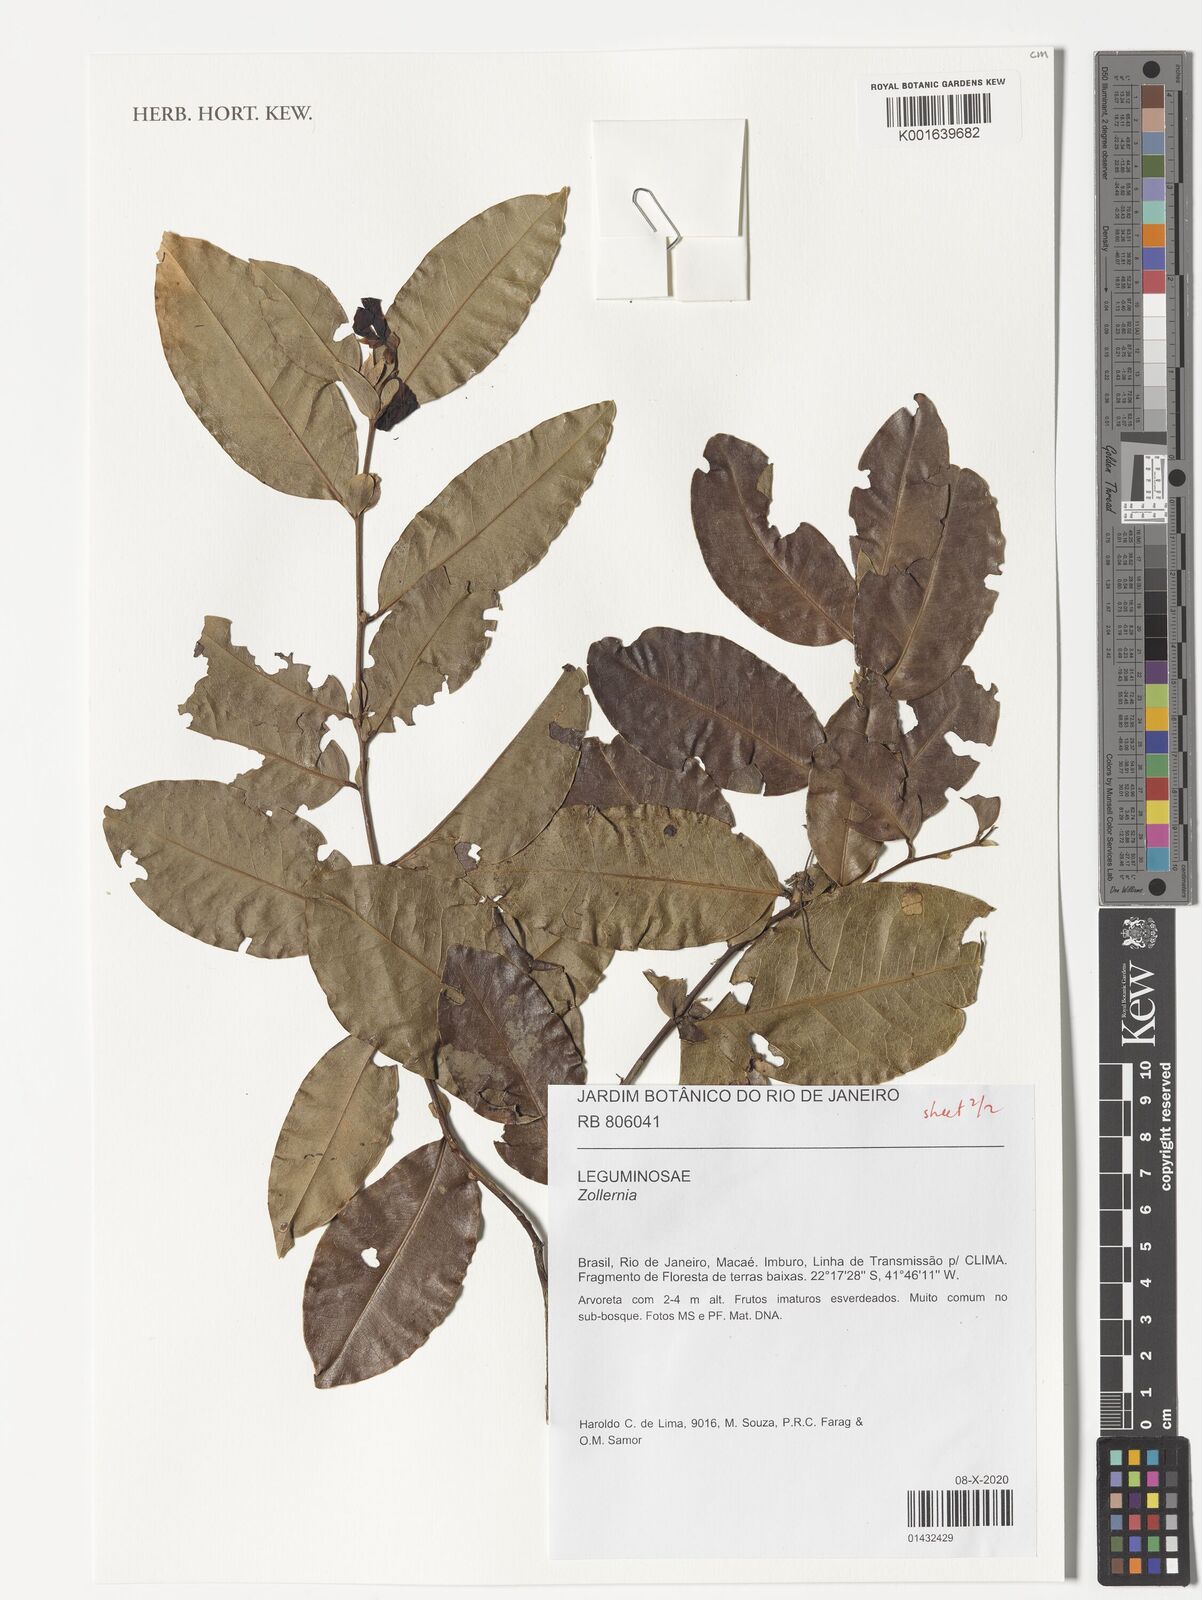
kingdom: Plantae
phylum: Tracheophyta
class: Magnoliopsida
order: Fabales
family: Fabaceae
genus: Zollernia
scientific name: Zollernia
